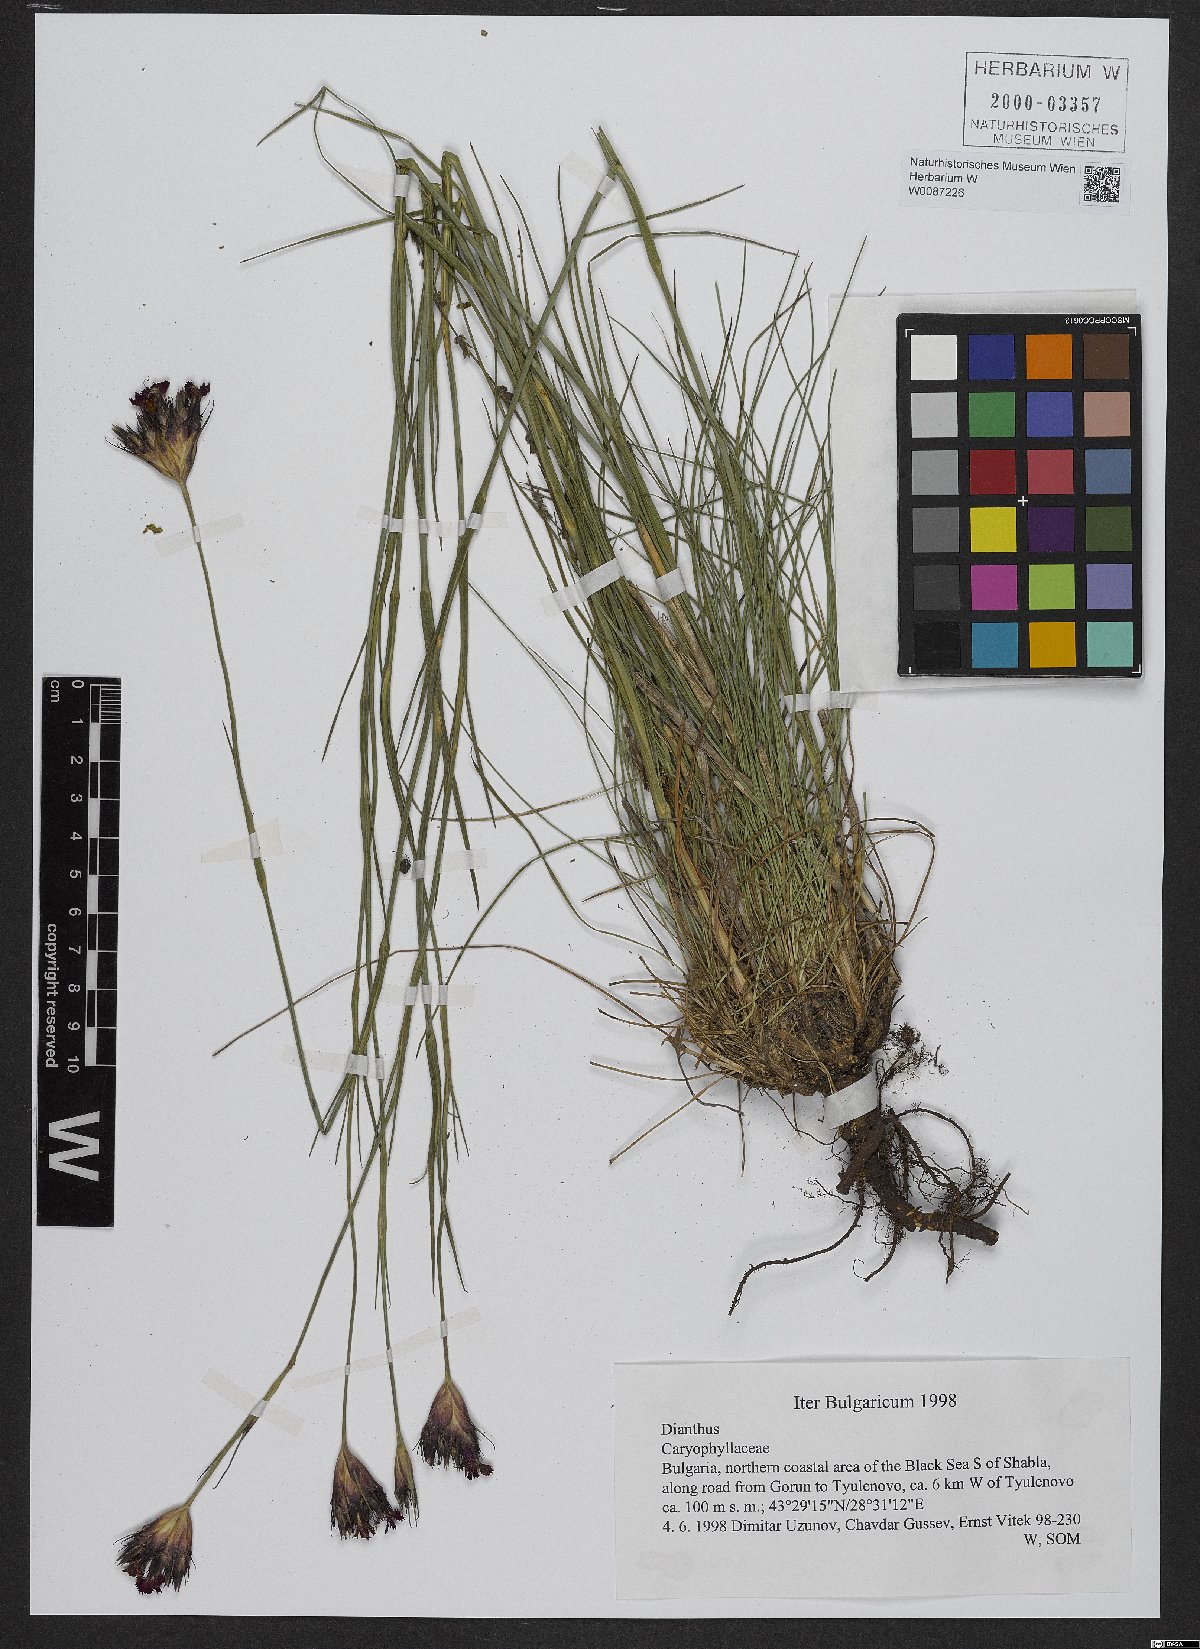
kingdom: Plantae
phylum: Tracheophyta
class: Magnoliopsida
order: Caryophyllales
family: Caryophyllaceae
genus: Dianthus
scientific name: Dianthus cruentus
